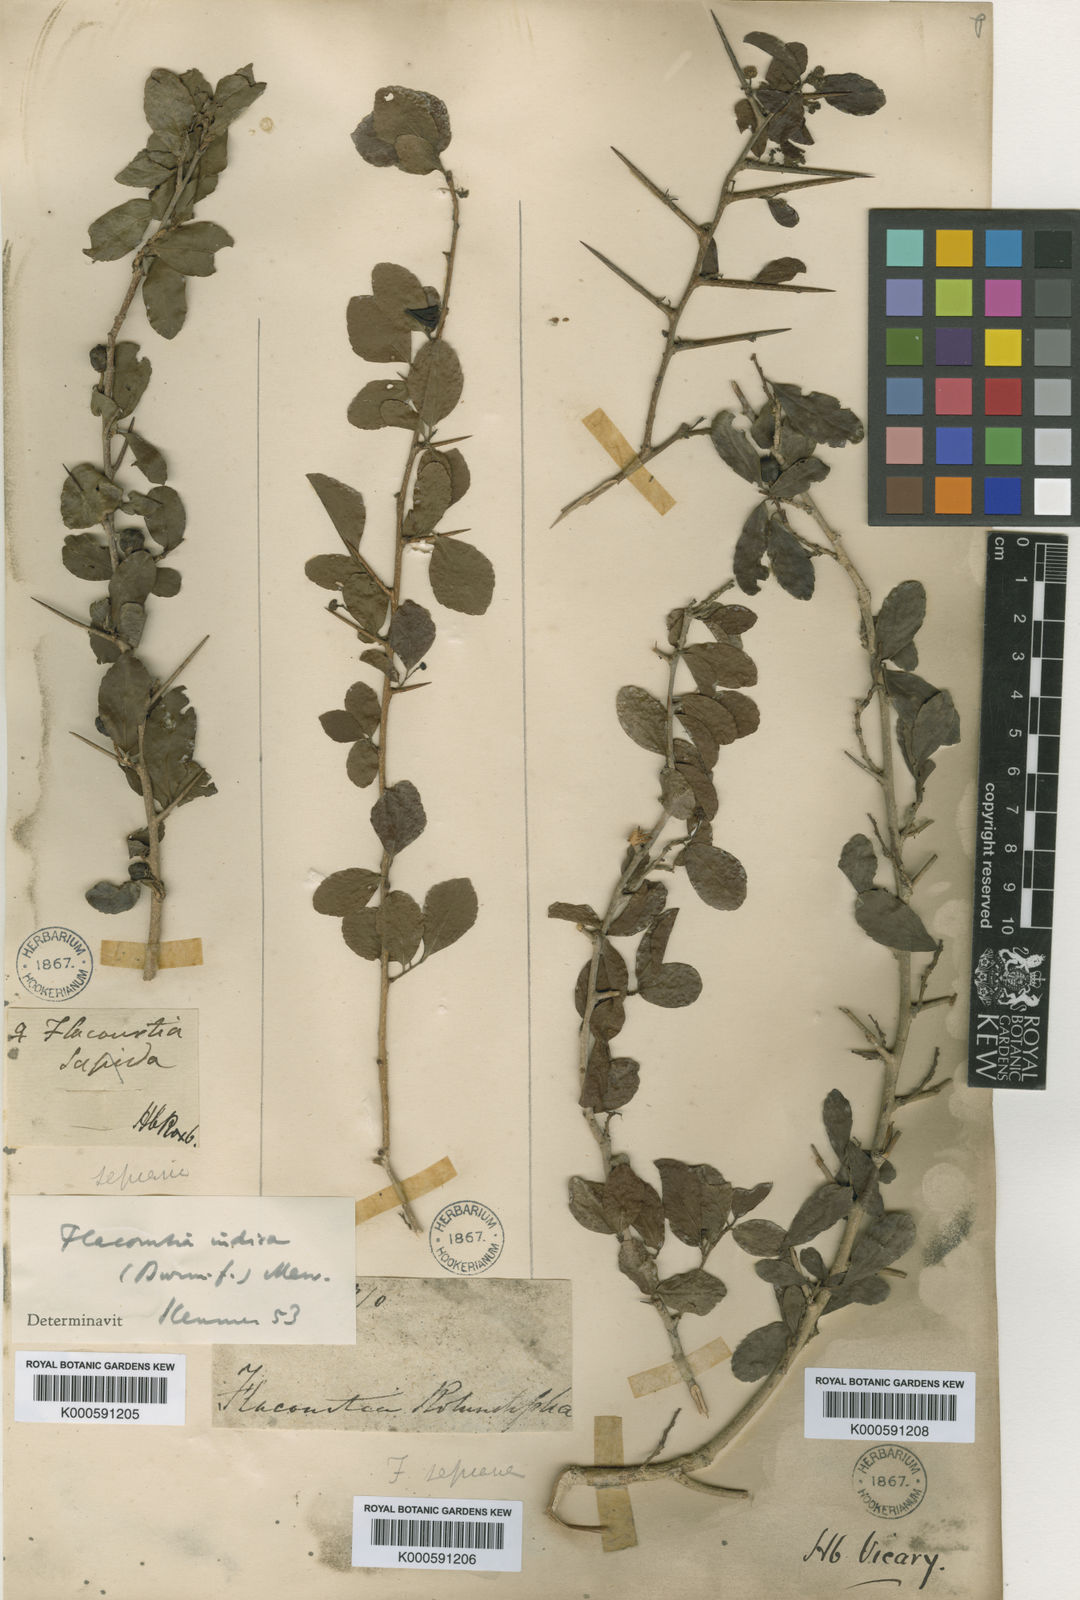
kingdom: Plantae
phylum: Tracheophyta
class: Magnoliopsida
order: Malpighiales
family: Salicaceae
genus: Flacourtia
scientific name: Flacourtia indica
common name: Governor's plum
